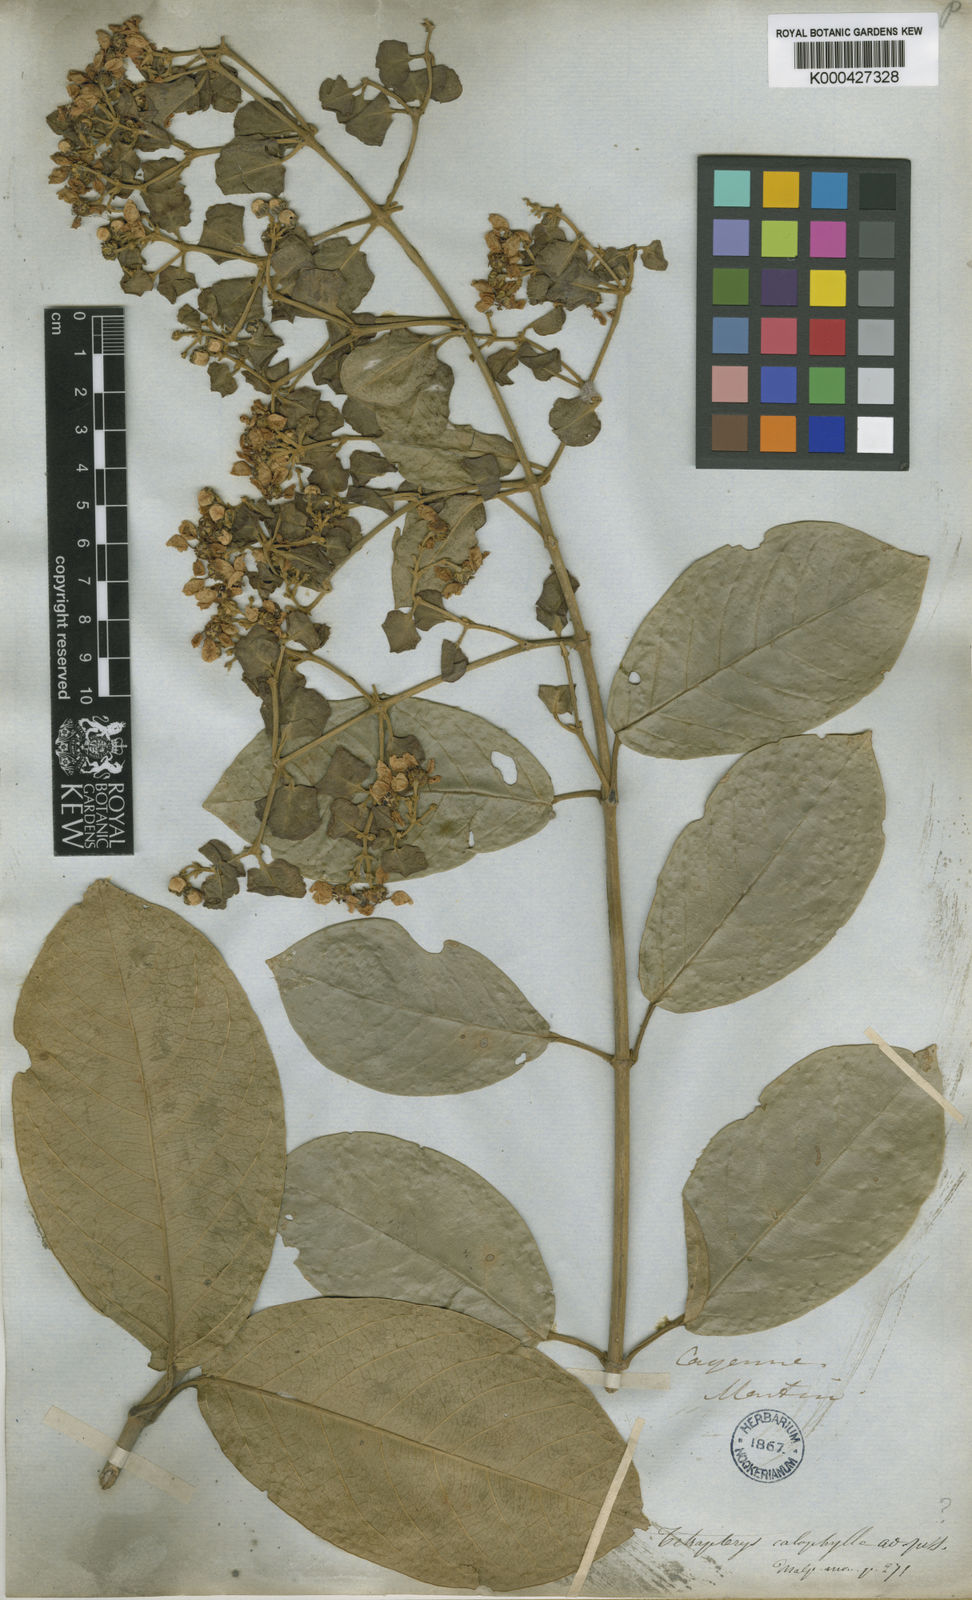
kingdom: Plantae
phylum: Tracheophyta
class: Magnoliopsida
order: Malpighiales
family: Malpighiaceae
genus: Tetrapterys
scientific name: Tetrapterys calophylla
